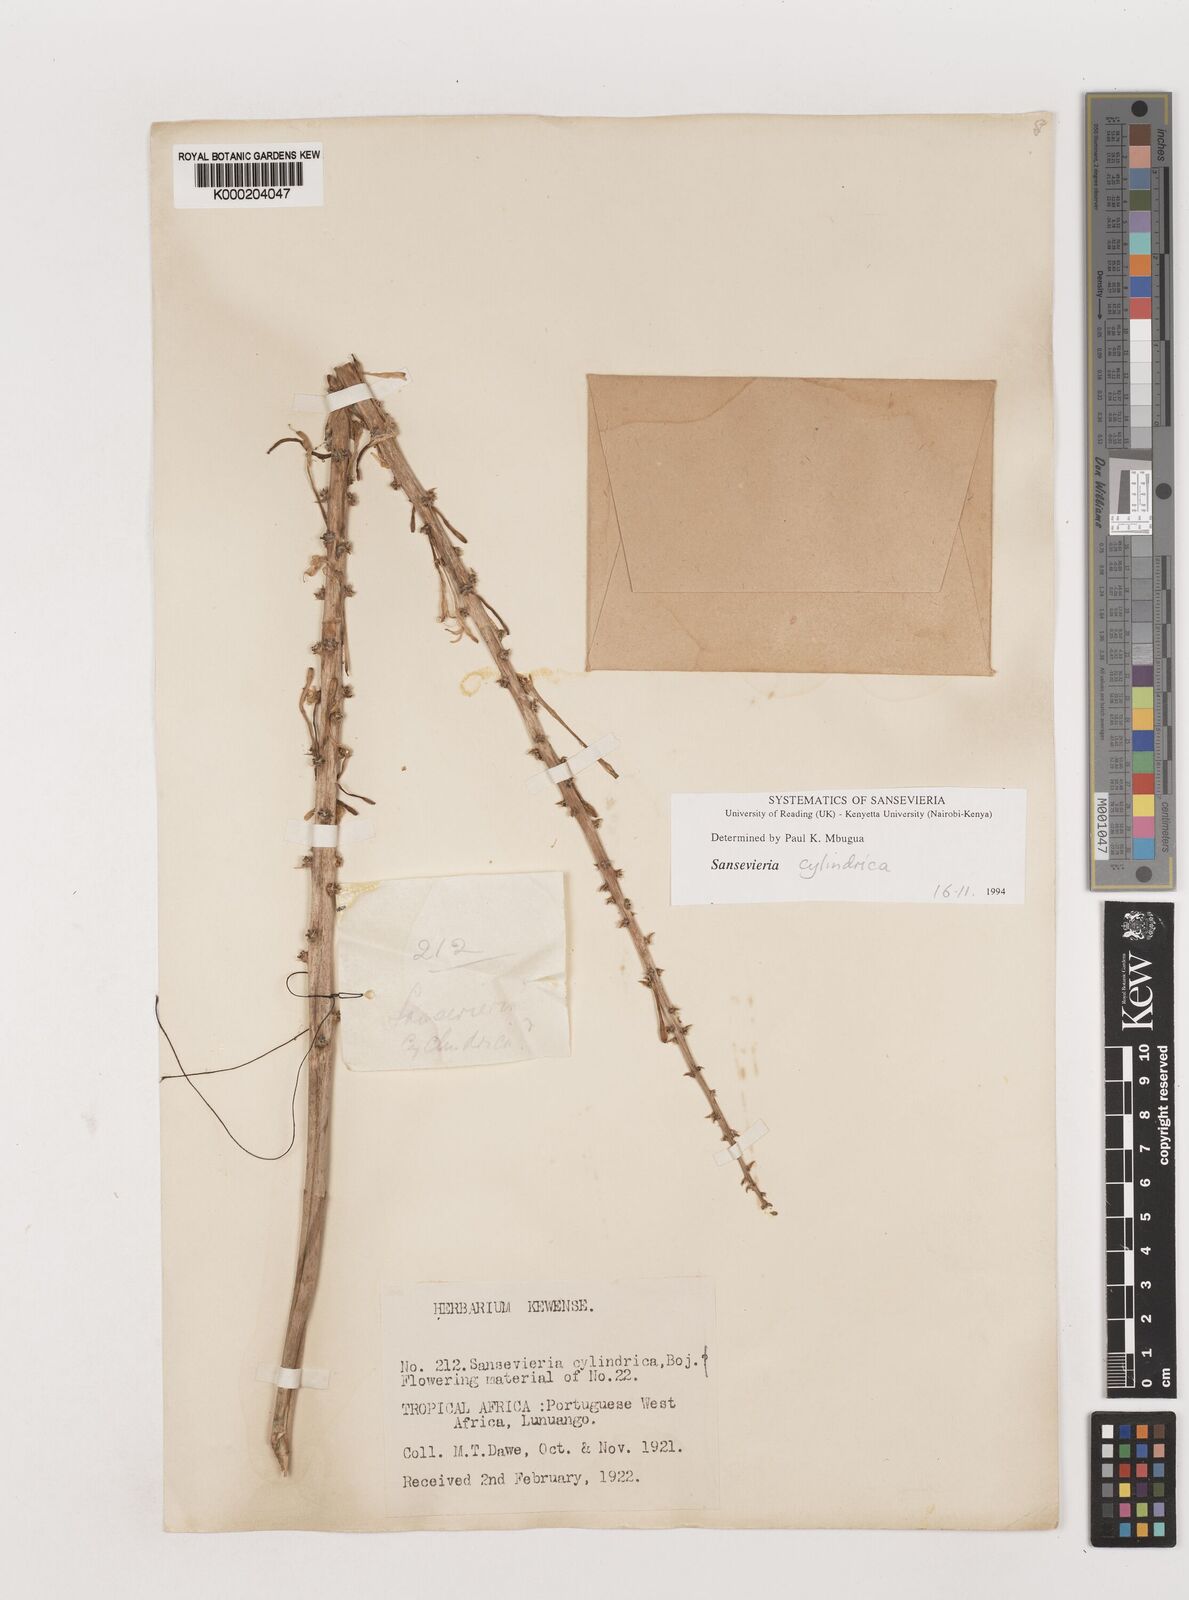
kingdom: Plantae
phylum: Tracheophyta
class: Liliopsida
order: Asparagales
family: Asparagaceae
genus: Dracaena
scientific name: Dracaena angolensis
